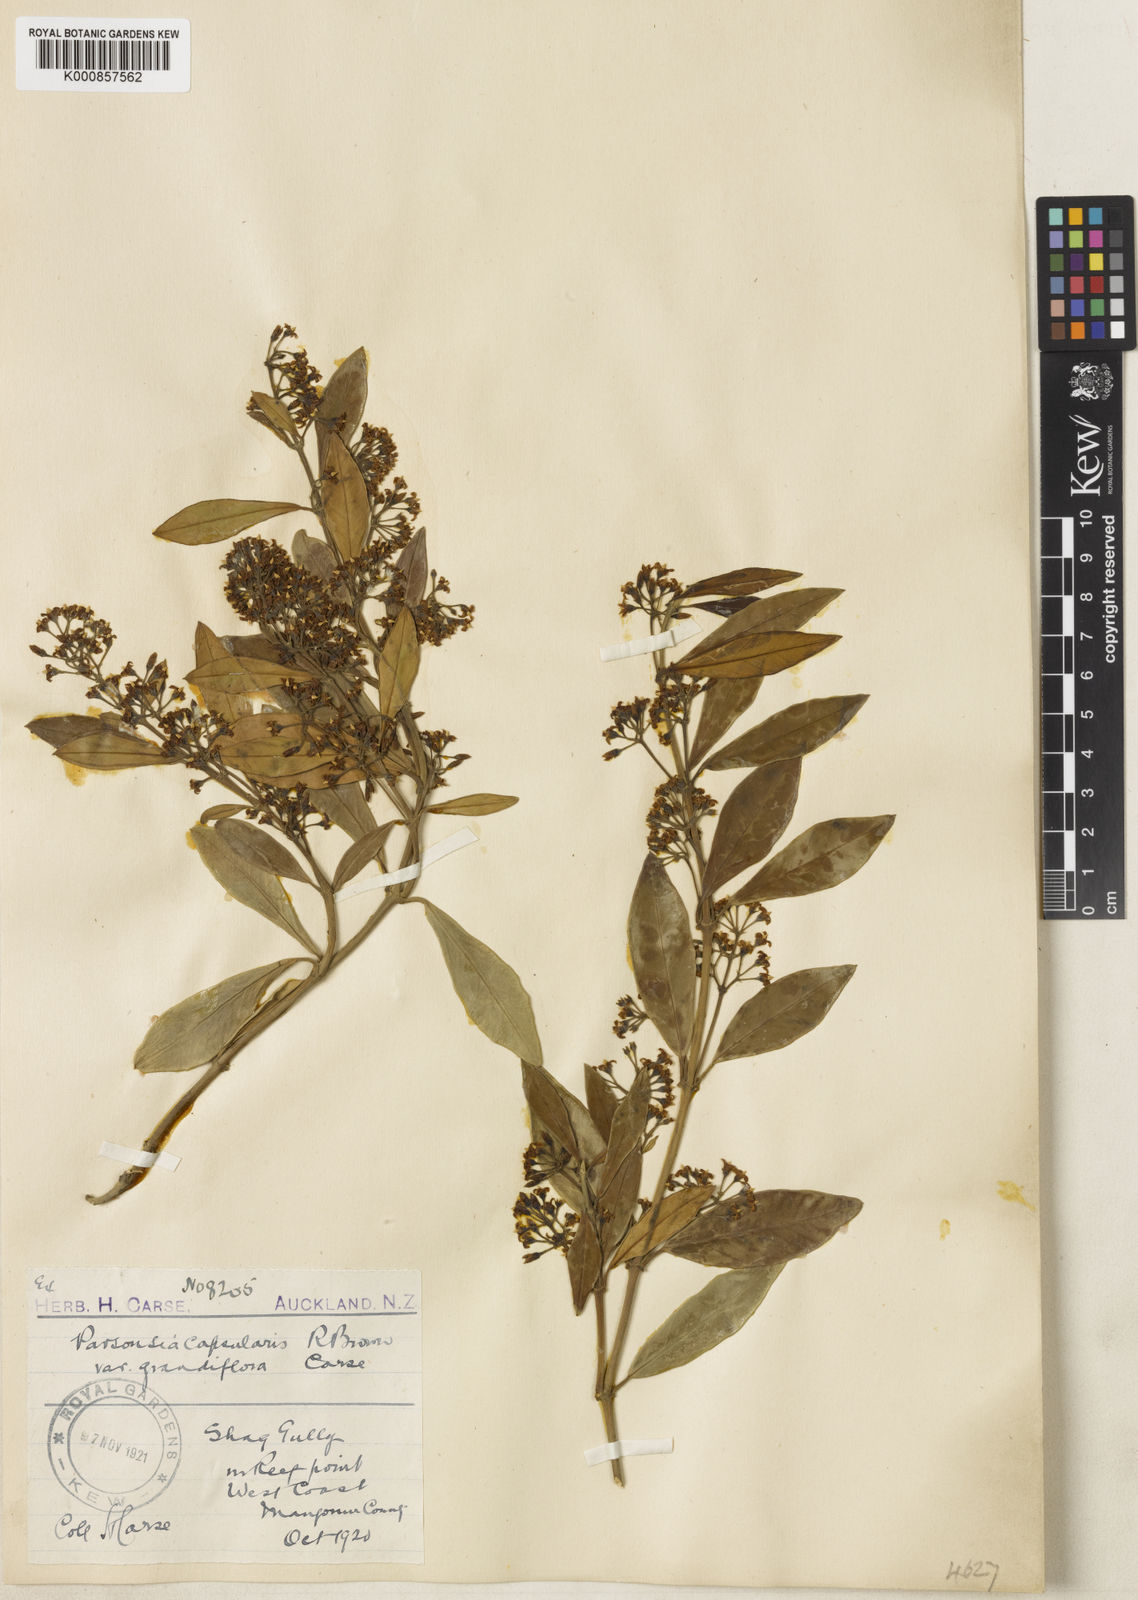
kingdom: Plantae
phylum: Tracheophyta
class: Magnoliopsida
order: Gentianales
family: Apocynaceae
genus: Parsonsia
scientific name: Parsonsia capsularis
